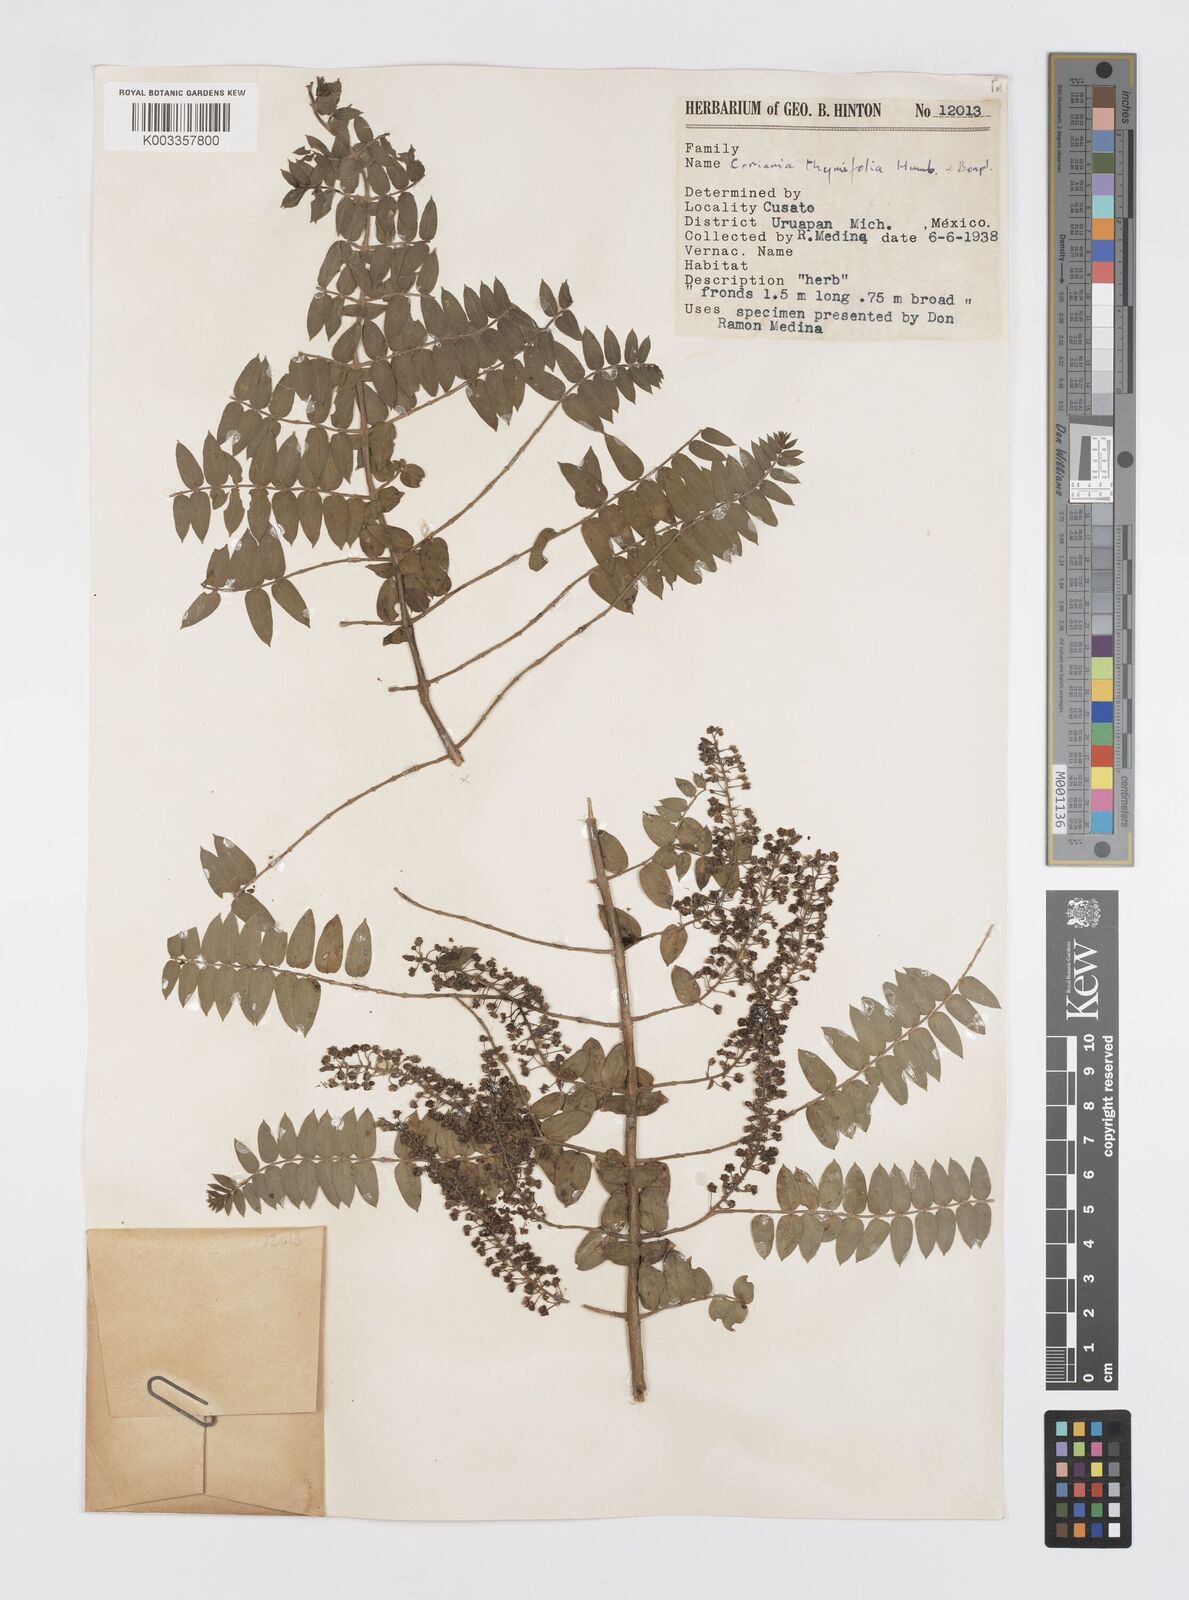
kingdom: Plantae
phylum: Tracheophyta
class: Magnoliopsida
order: Cucurbitales
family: Coriariaceae
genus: Coriaria
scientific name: Coriaria microphylla
